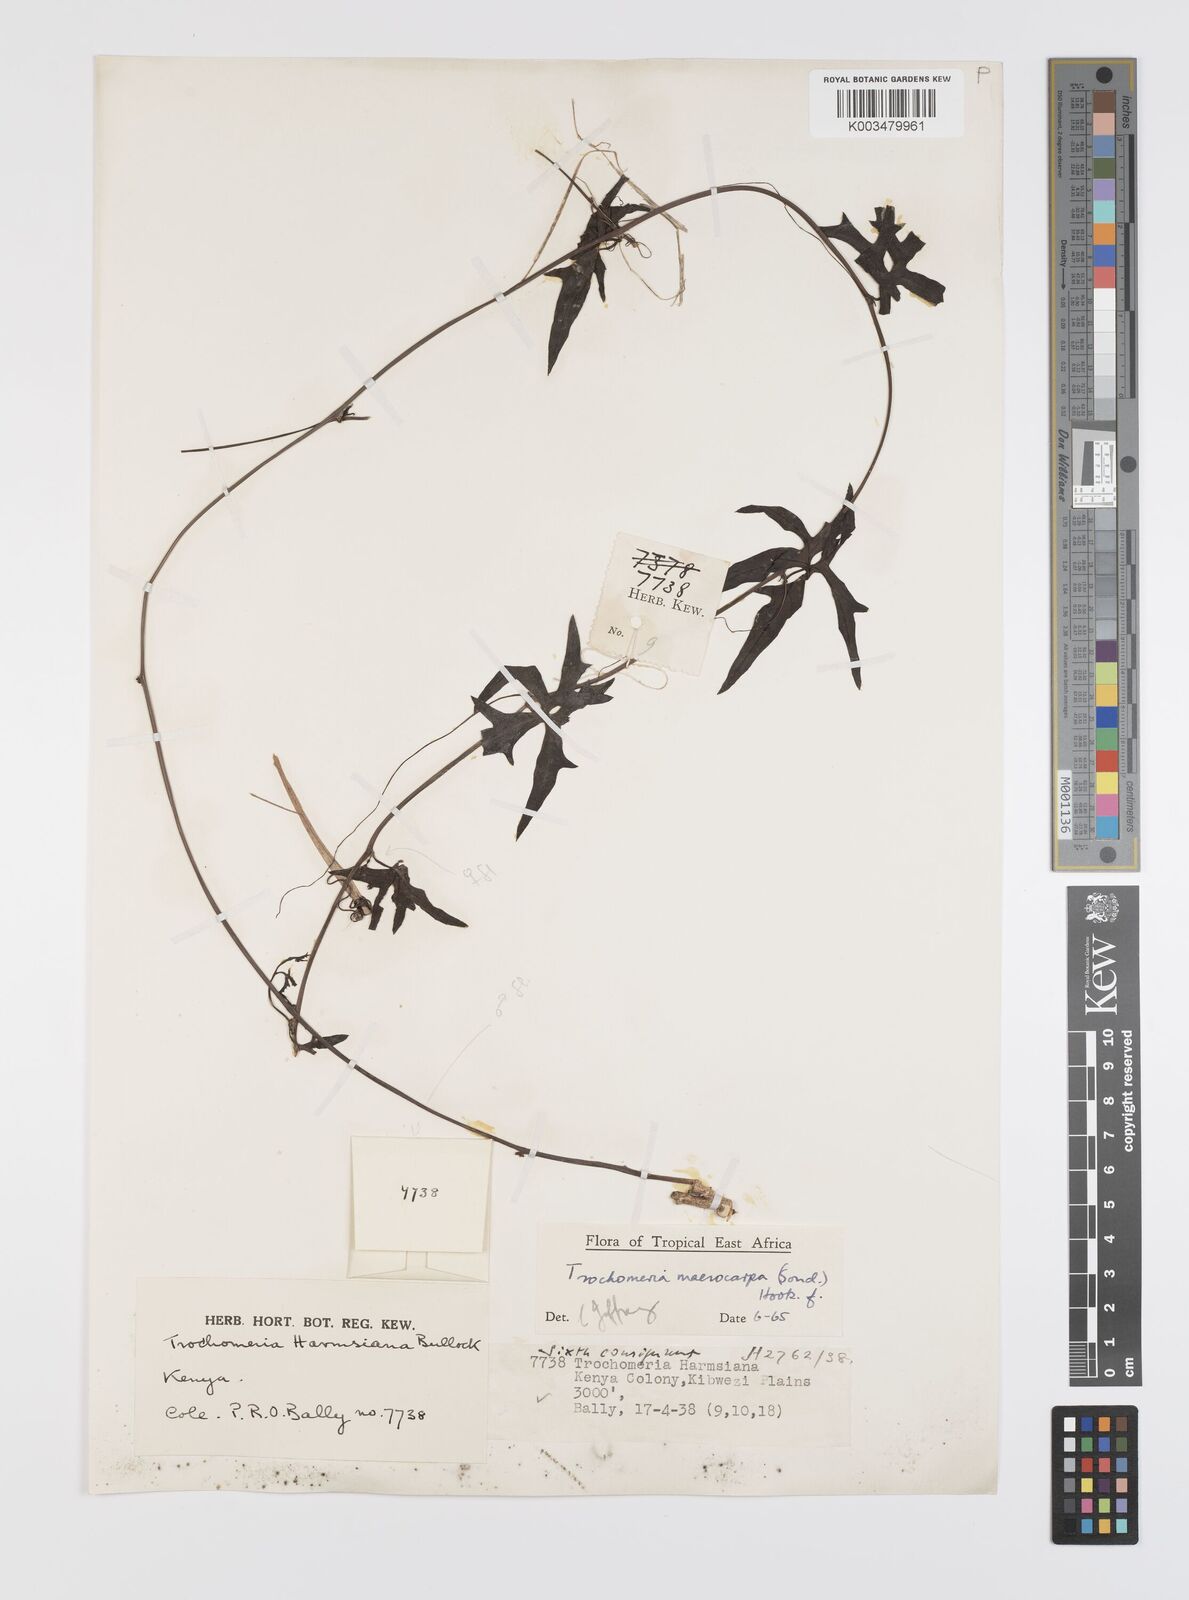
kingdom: Plantae
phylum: Tracheophyta
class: Magnoliopsida
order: Cucurbitales
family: Cucurbitaceae
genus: Trochomeria
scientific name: Trochomeria macrocarpa
